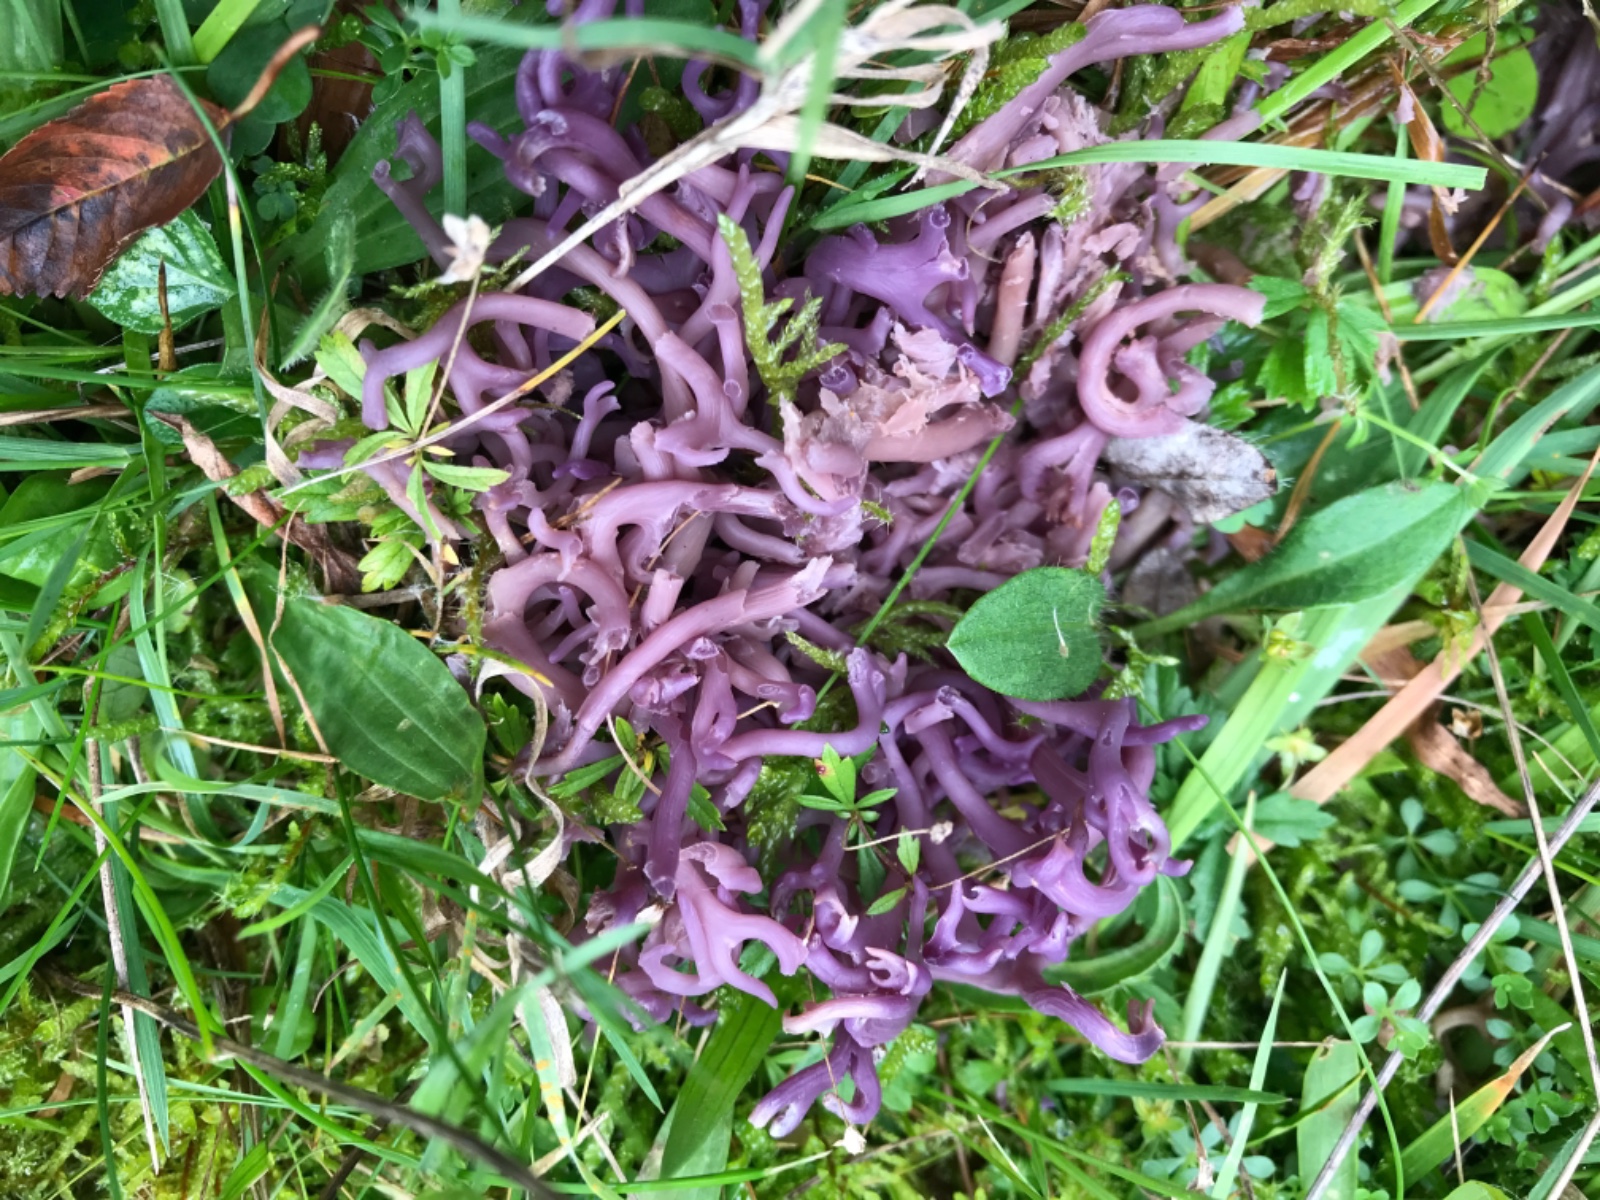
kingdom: Fungi
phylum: Basidiomycota
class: Agaricomycetes
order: Agaricales
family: Clavariaceae
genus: Clavaria
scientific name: Clavaria zollingeri
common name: purpur-køllesvamp
